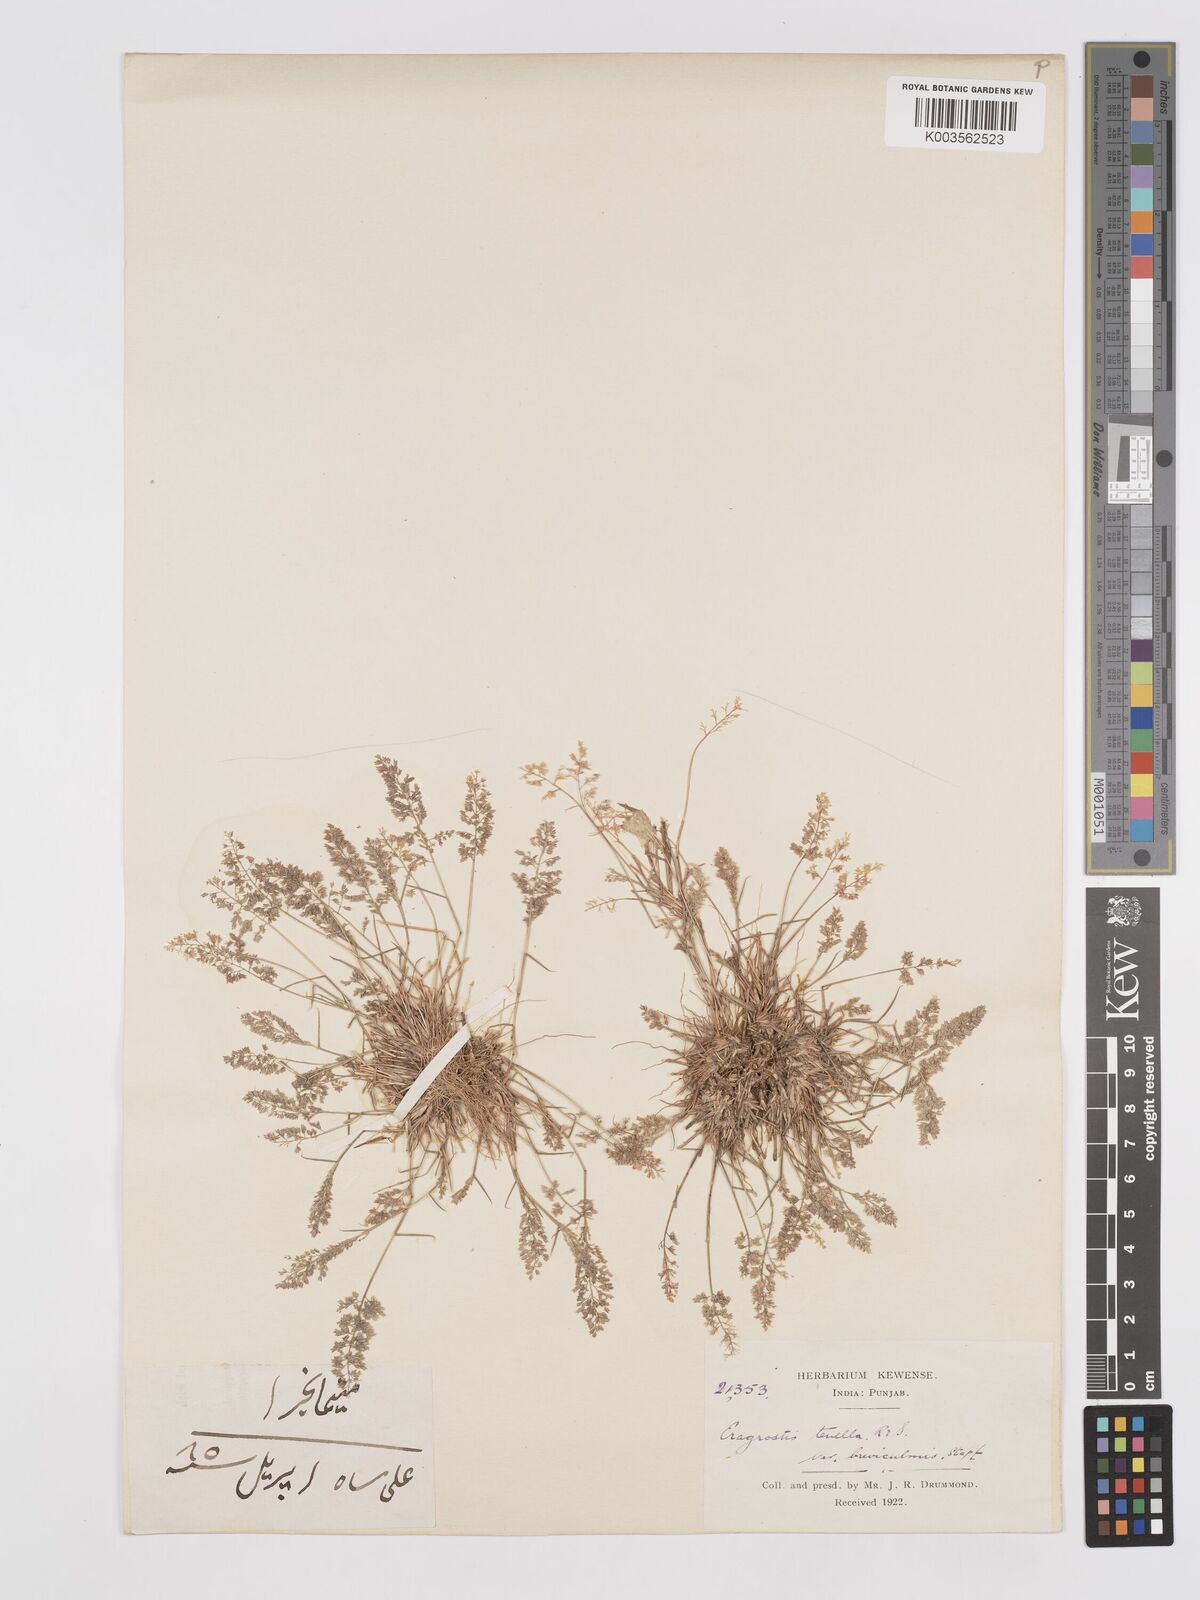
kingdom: Plantae
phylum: Tracheophyta
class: Liliopsida
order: Poales
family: Poaceae
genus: Eragrostis
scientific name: Eragrostis tenella
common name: Japanese lovegrass
